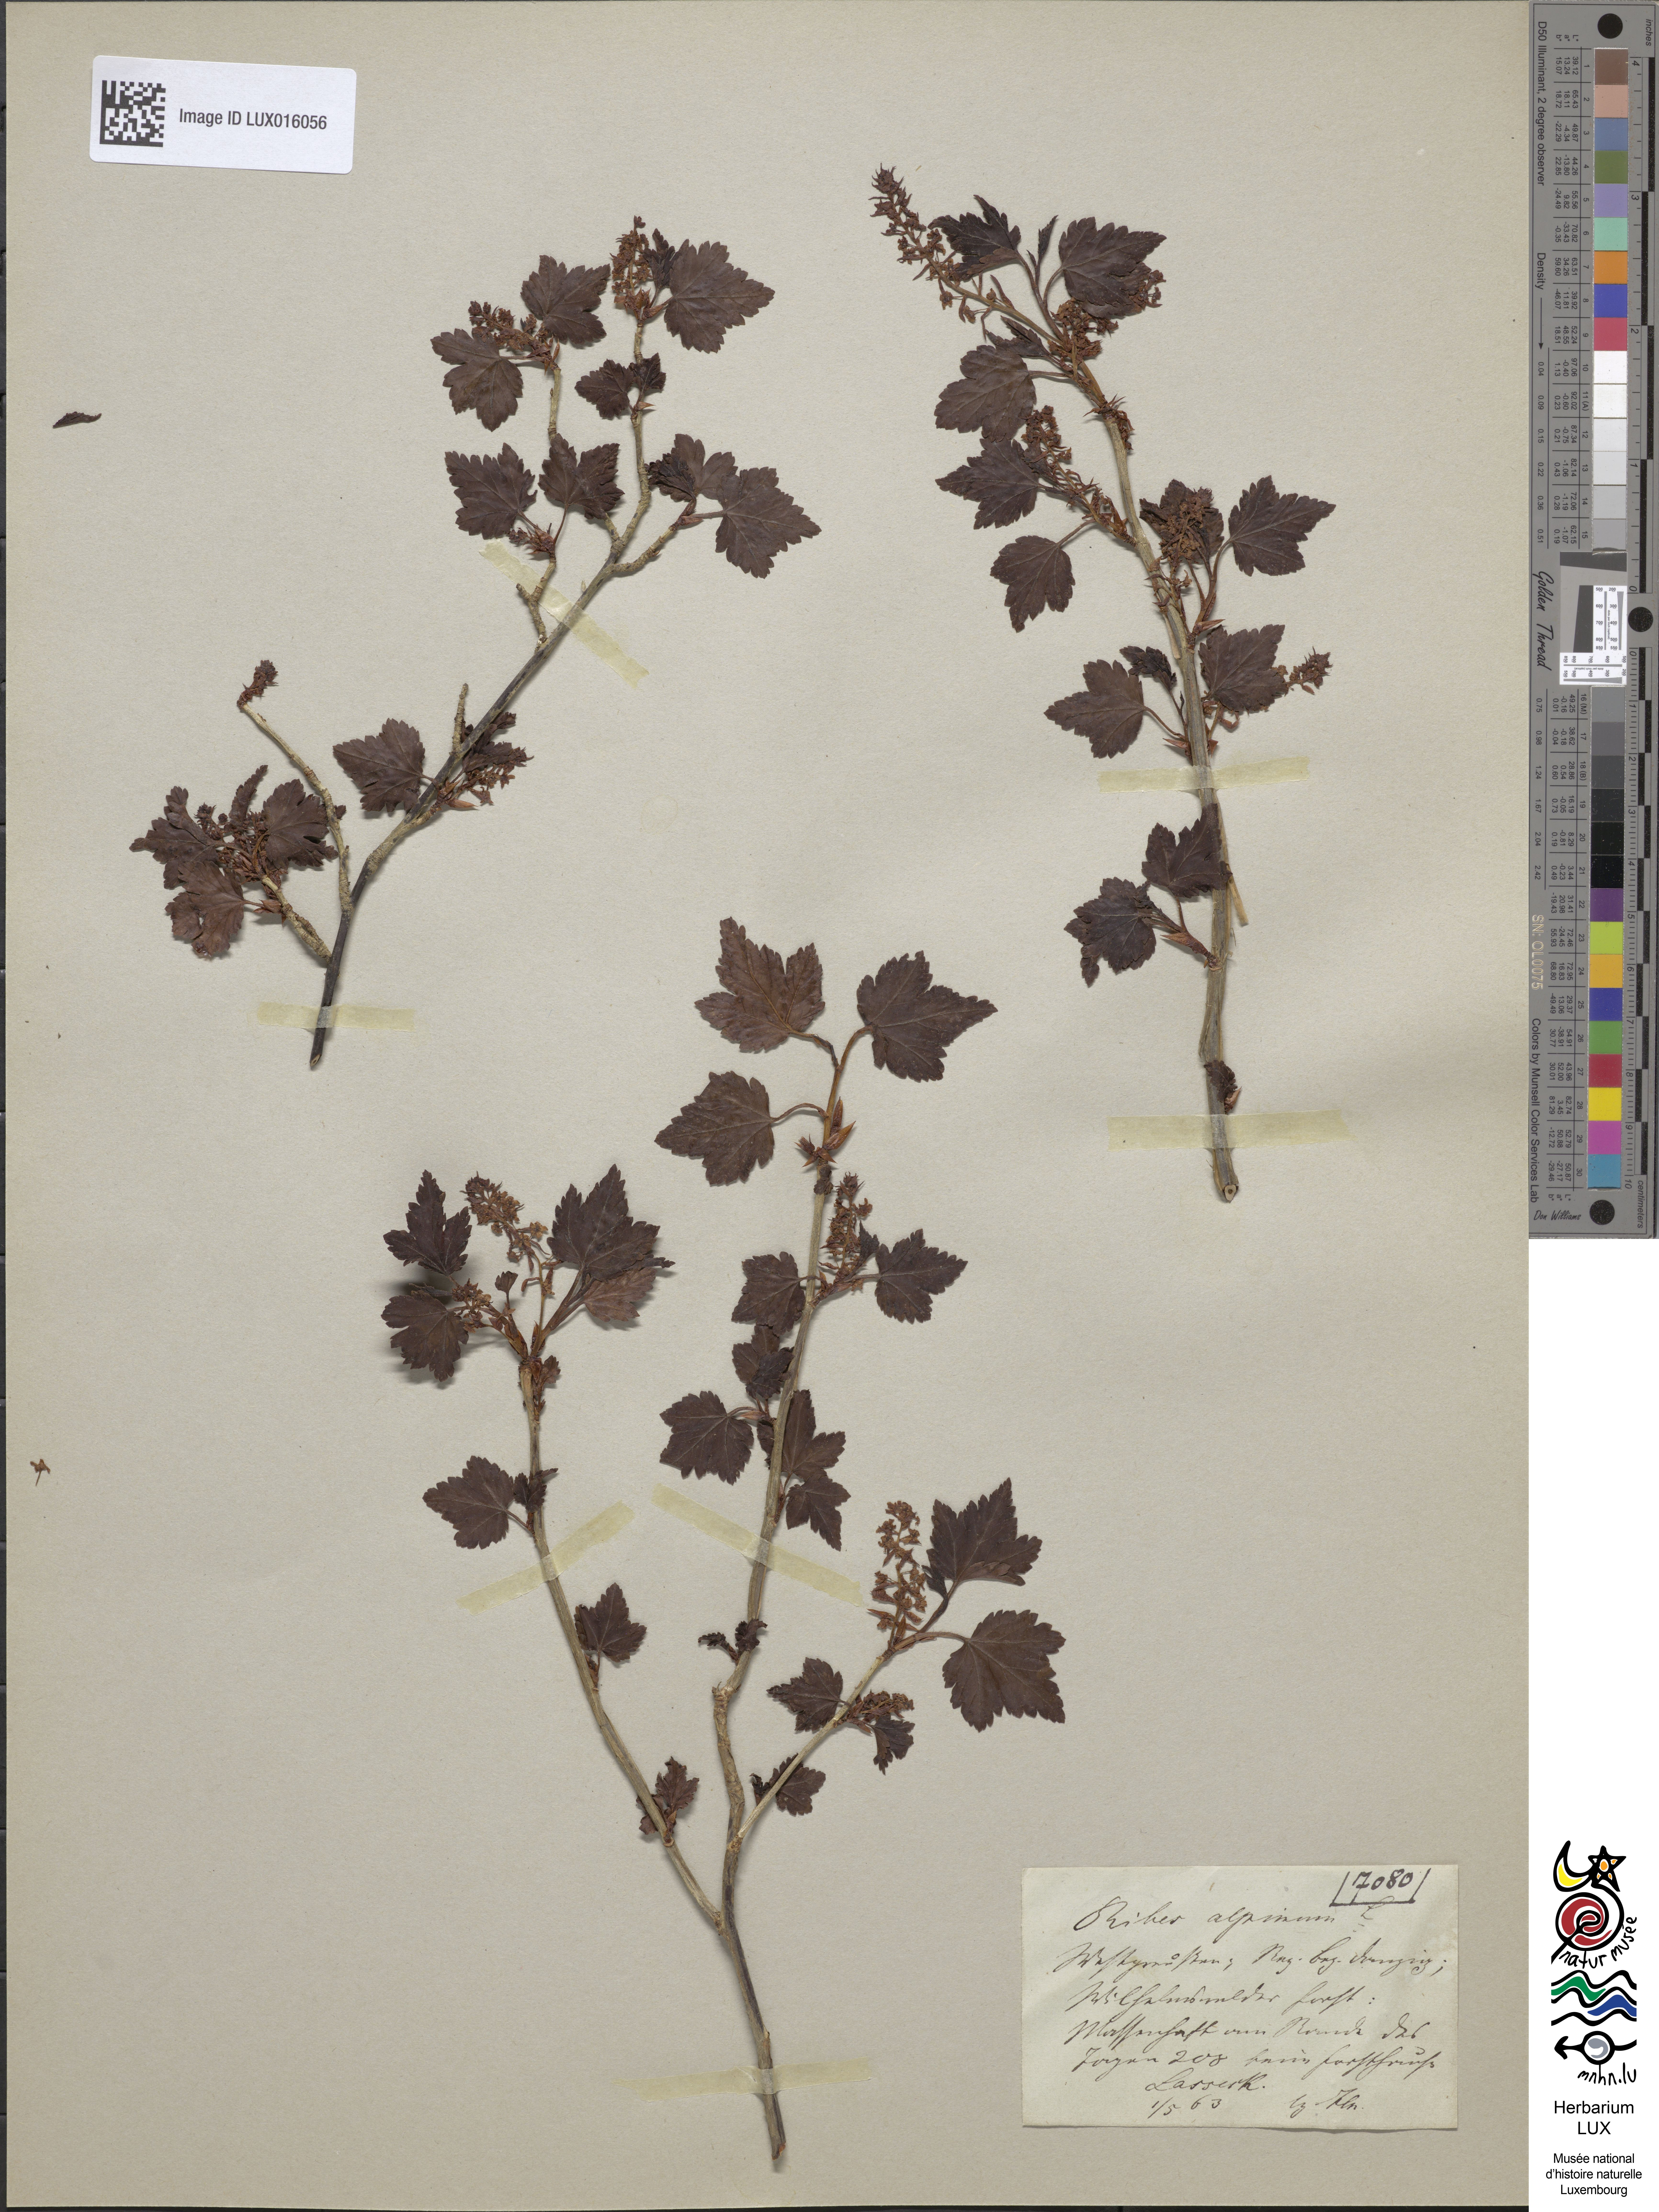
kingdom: Plantae
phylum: Tracheophyta
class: Magnoliopsida
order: Saxifragales
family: Grossulariaceae
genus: Ribes
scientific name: Ribes alpinum
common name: Alpine currant
